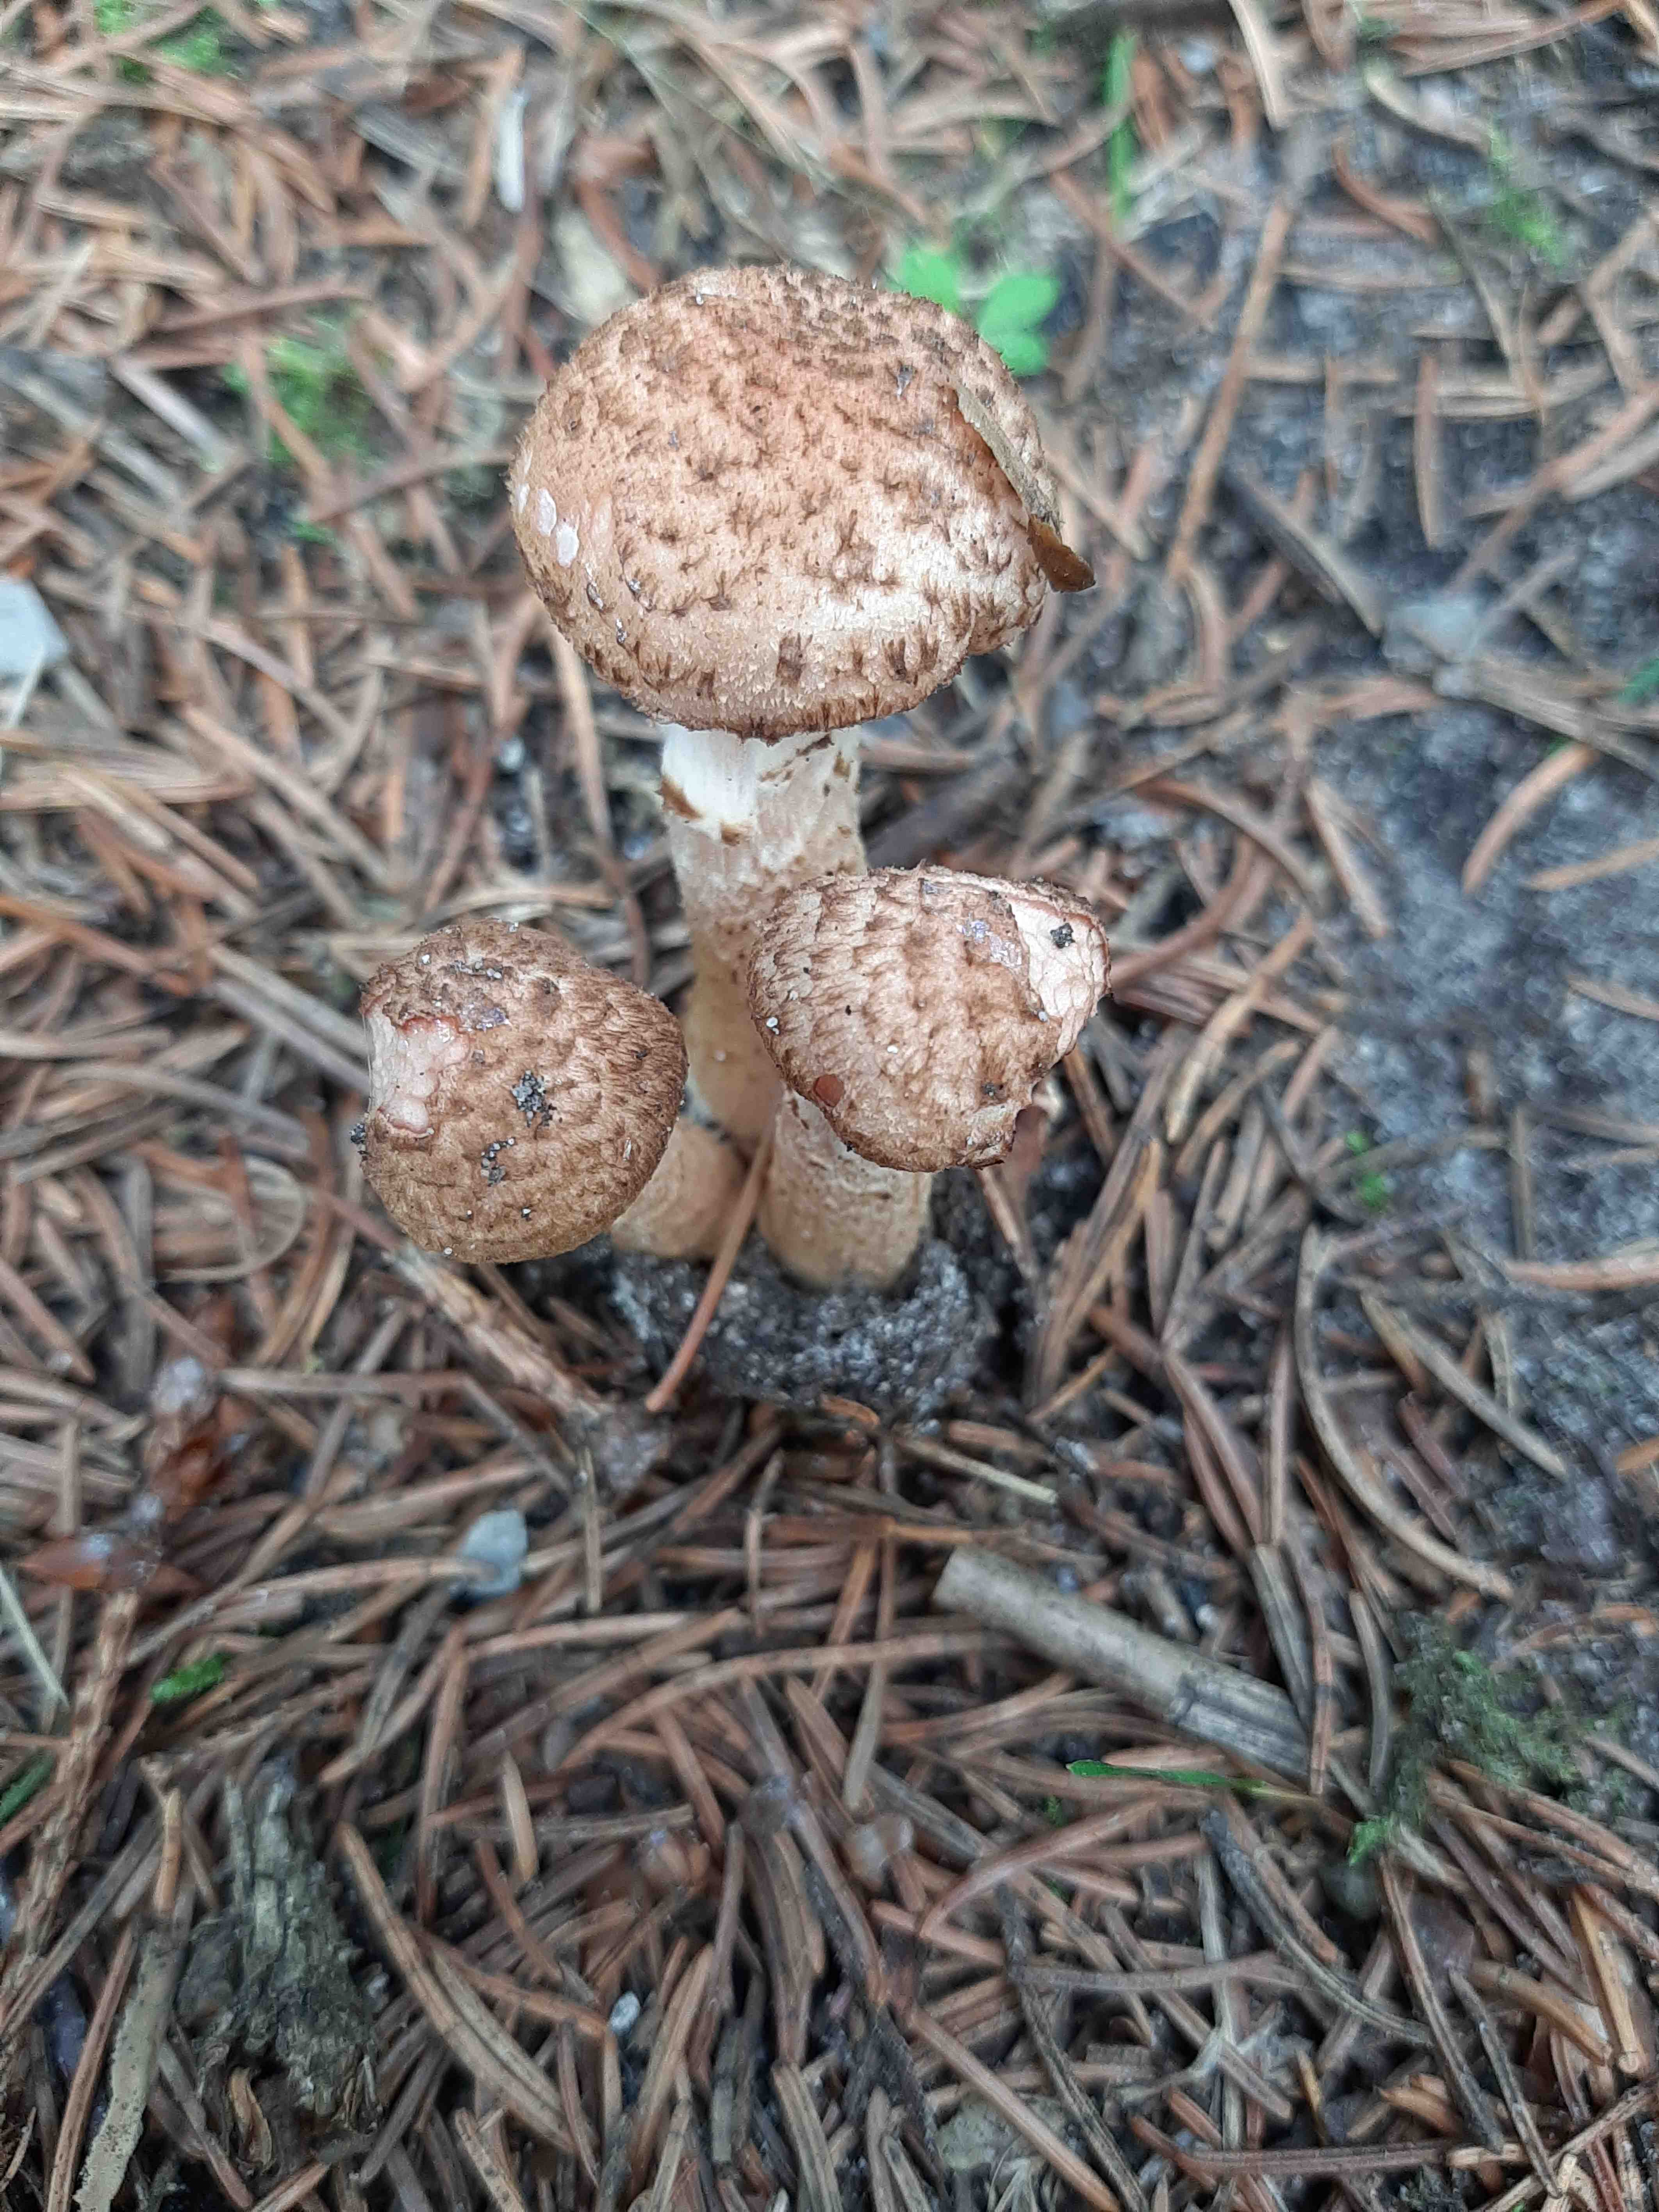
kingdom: Fungi
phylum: Basidiomycota
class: Agaricomycetes
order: Agaricales
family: Physalacriaceae
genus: Armillaria
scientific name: Armillaria ostoyae
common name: mørk honningsvamp
